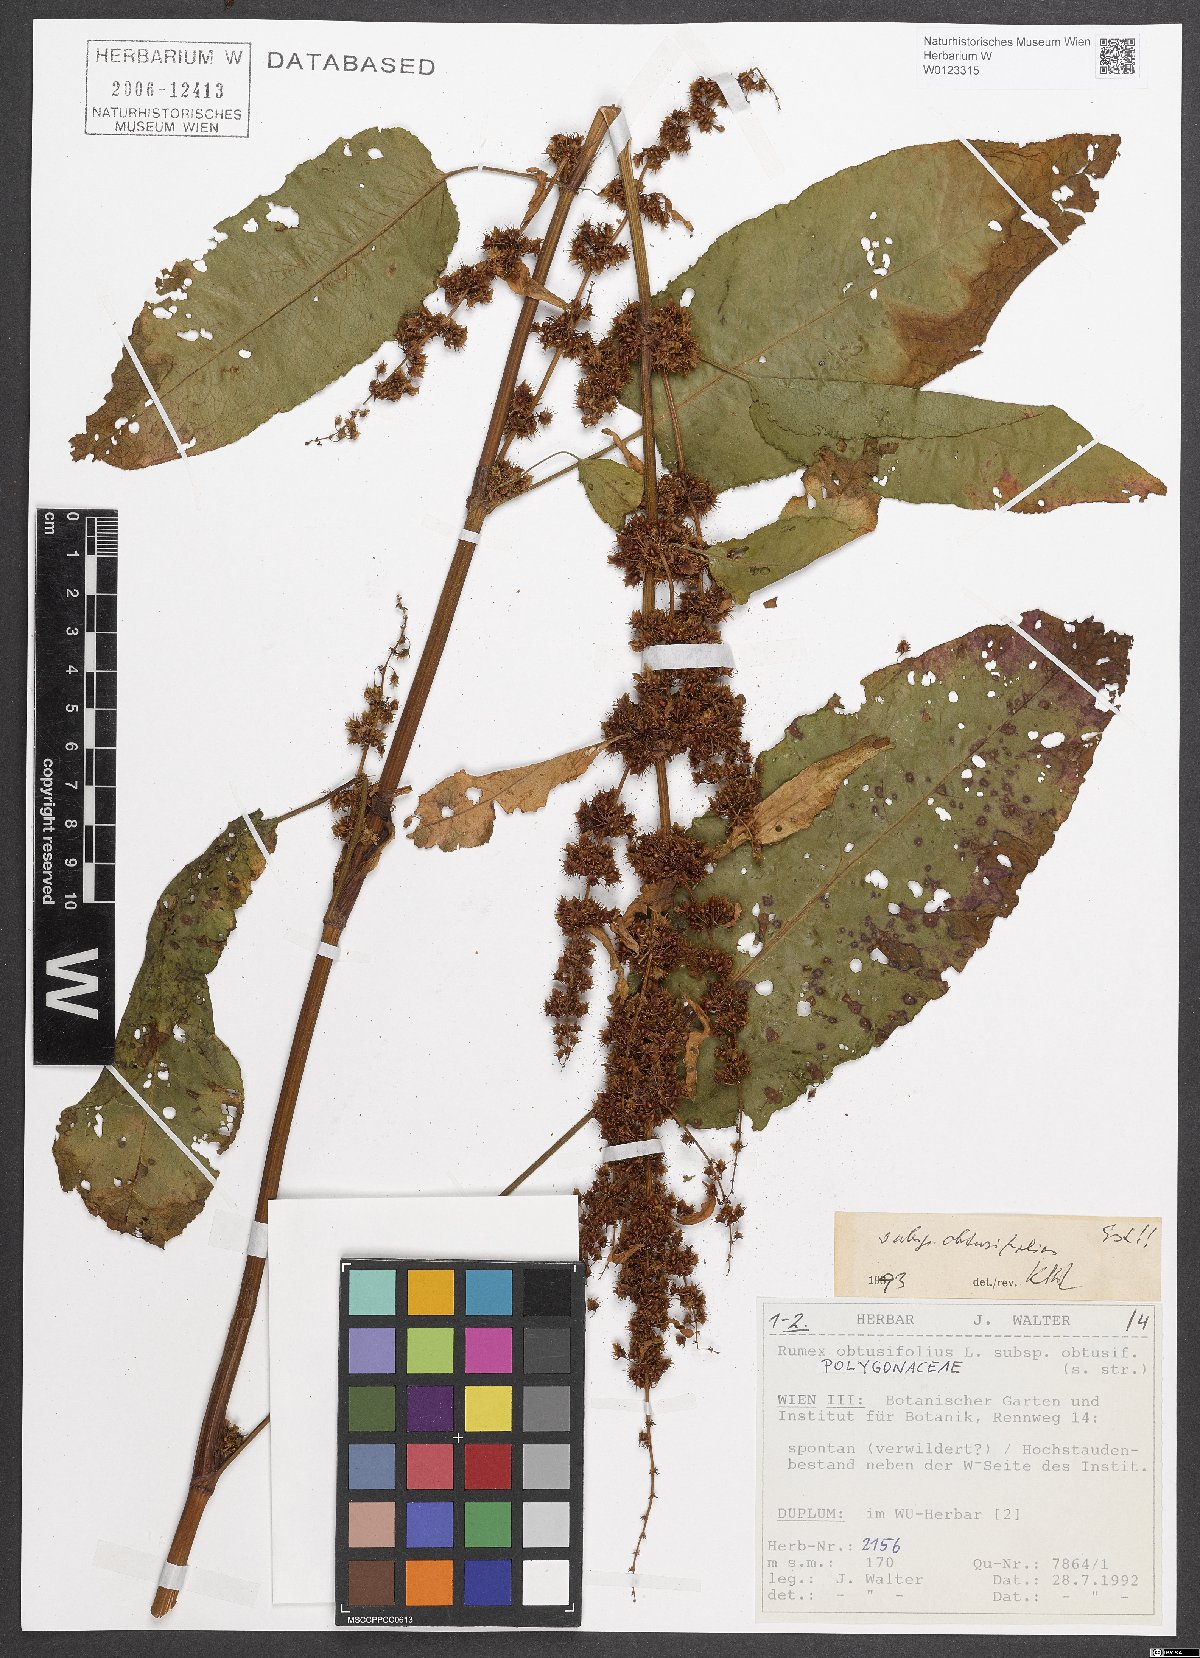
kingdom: Plantae
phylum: Tracheophyta
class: Magnoliopsida
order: Caryophyllales
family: Polygonaceae
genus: Rumex
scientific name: Rumex obtusifolius
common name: Bitter dock
